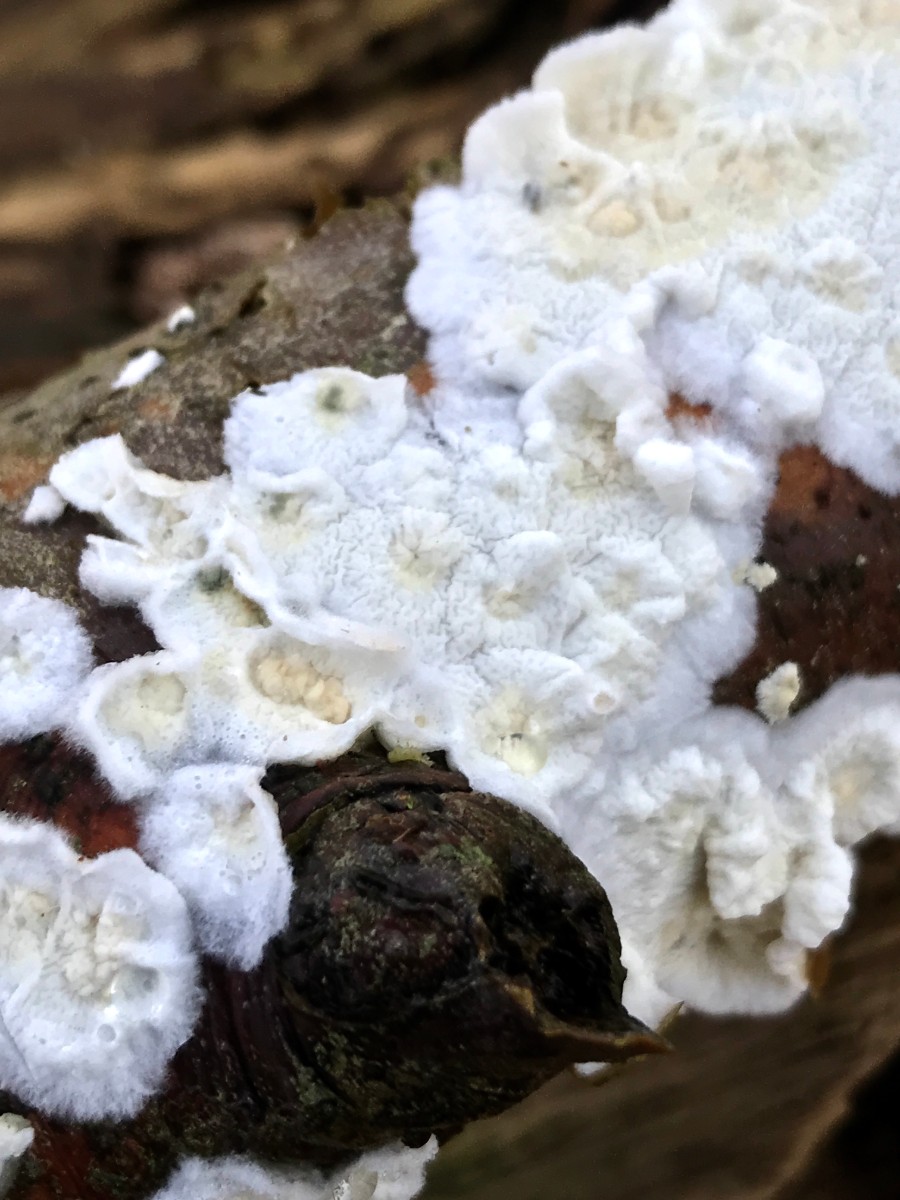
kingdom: Fungi
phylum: Basidiomycota
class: Agaricomycetes
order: Polyporales
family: Irpicaceae
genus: Byssomerulius
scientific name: Byssomerulius corium
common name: læder-åresvamp
